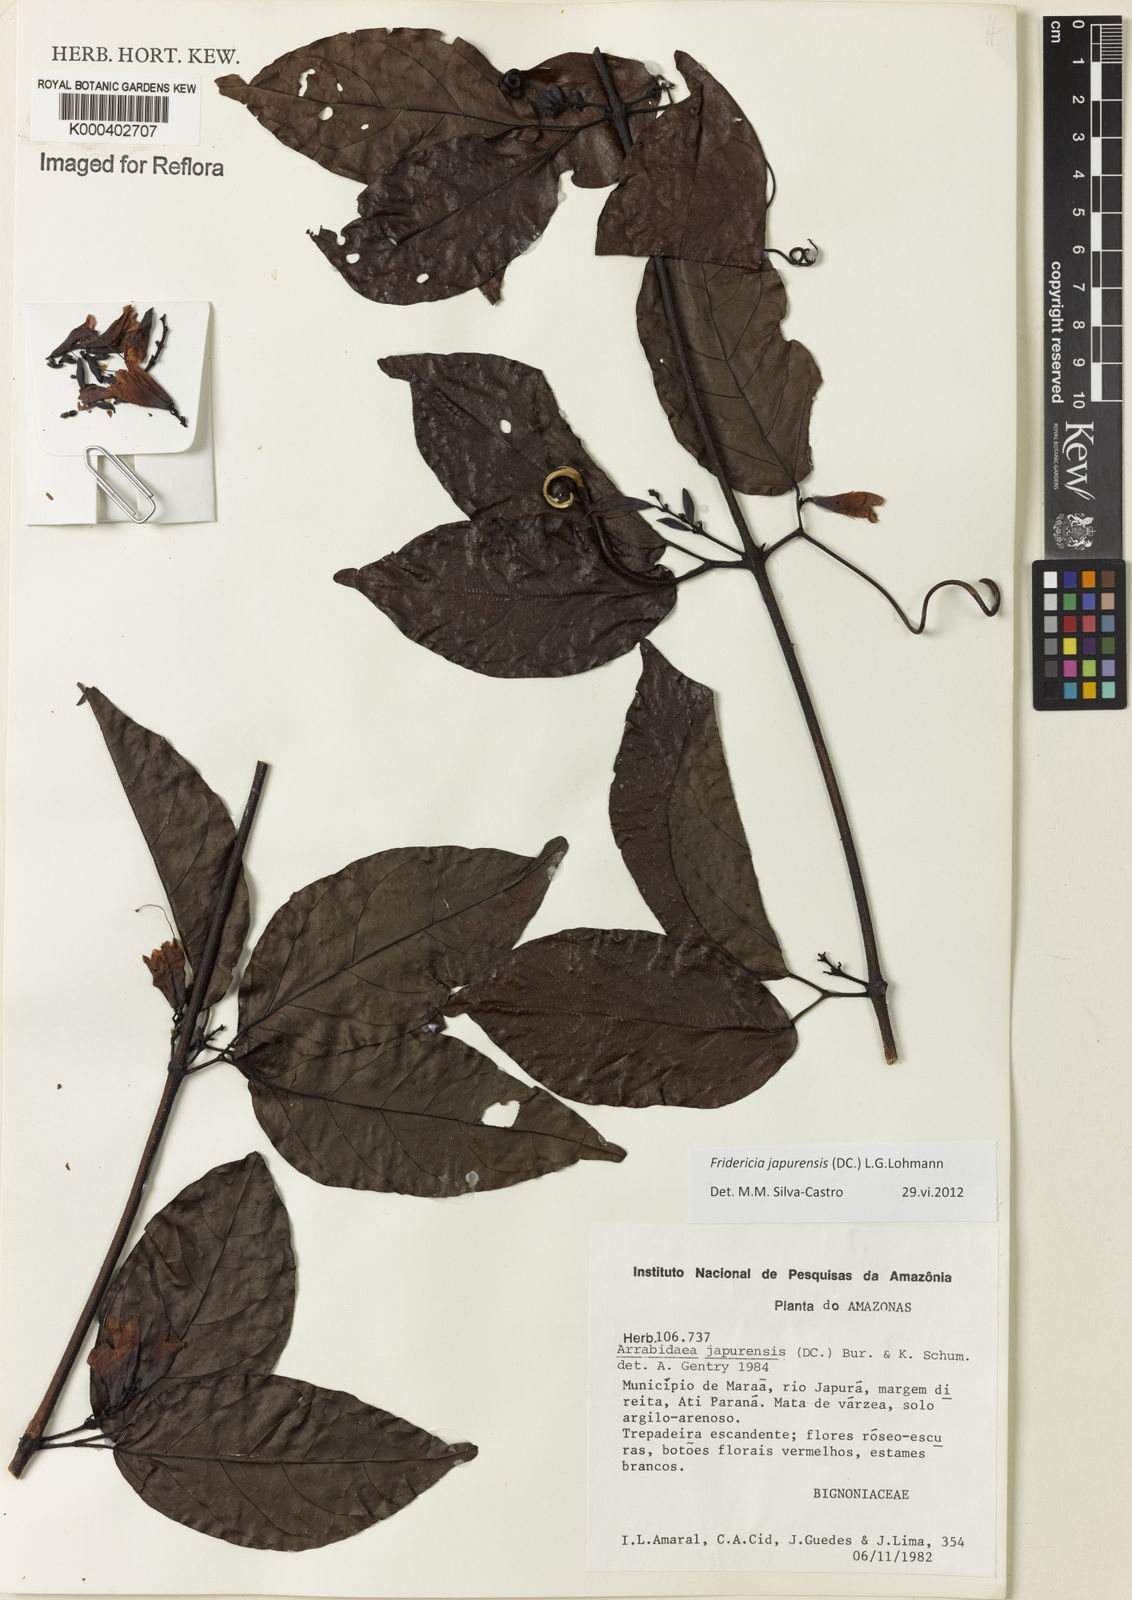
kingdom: Plantae
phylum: Tracheophyta
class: Magnoliopsida
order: Lamiales
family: Bignoniaceae
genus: Fridericia
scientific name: Fridericia japurensis
